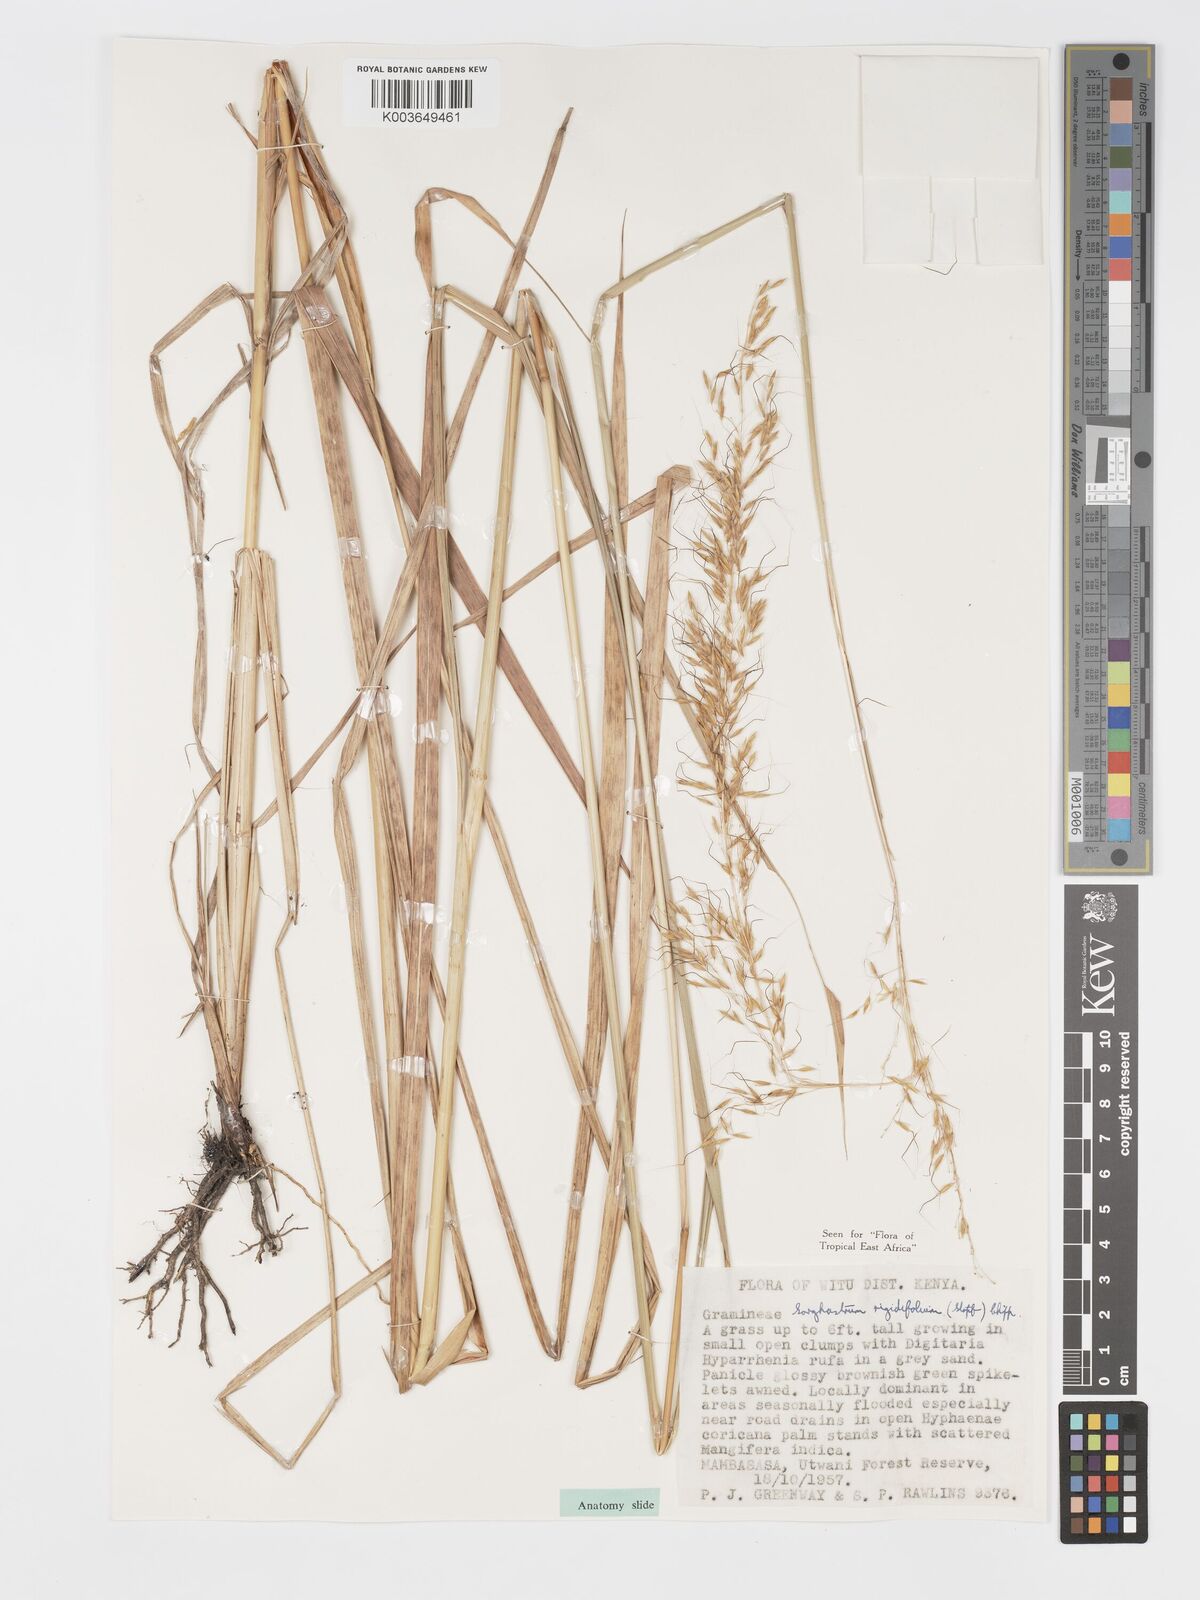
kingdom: Plantae
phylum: Tracheophyta
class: Liliopsida
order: Poales
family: Poaceae
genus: Sorghastrum
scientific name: Sorghastrum stipoides
